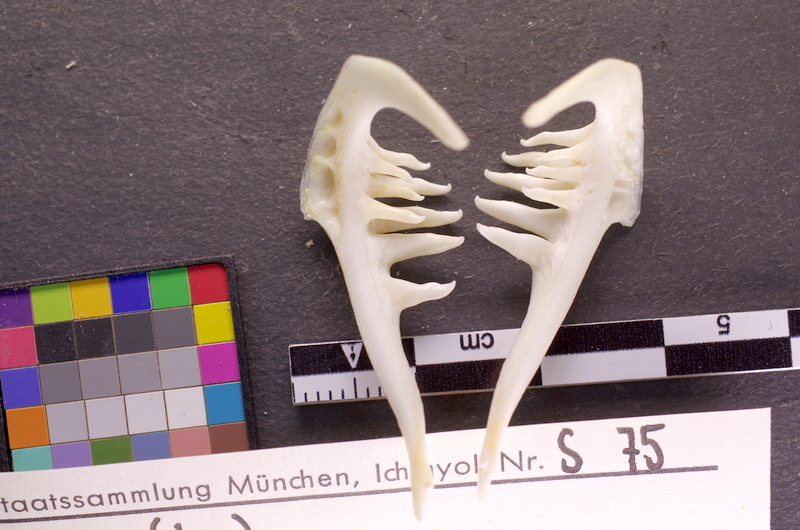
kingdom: Animalia
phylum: Chordata
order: Cypriniformes
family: Cyprinidae
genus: Leuciscus
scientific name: Leuciscus aspius
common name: Asp
